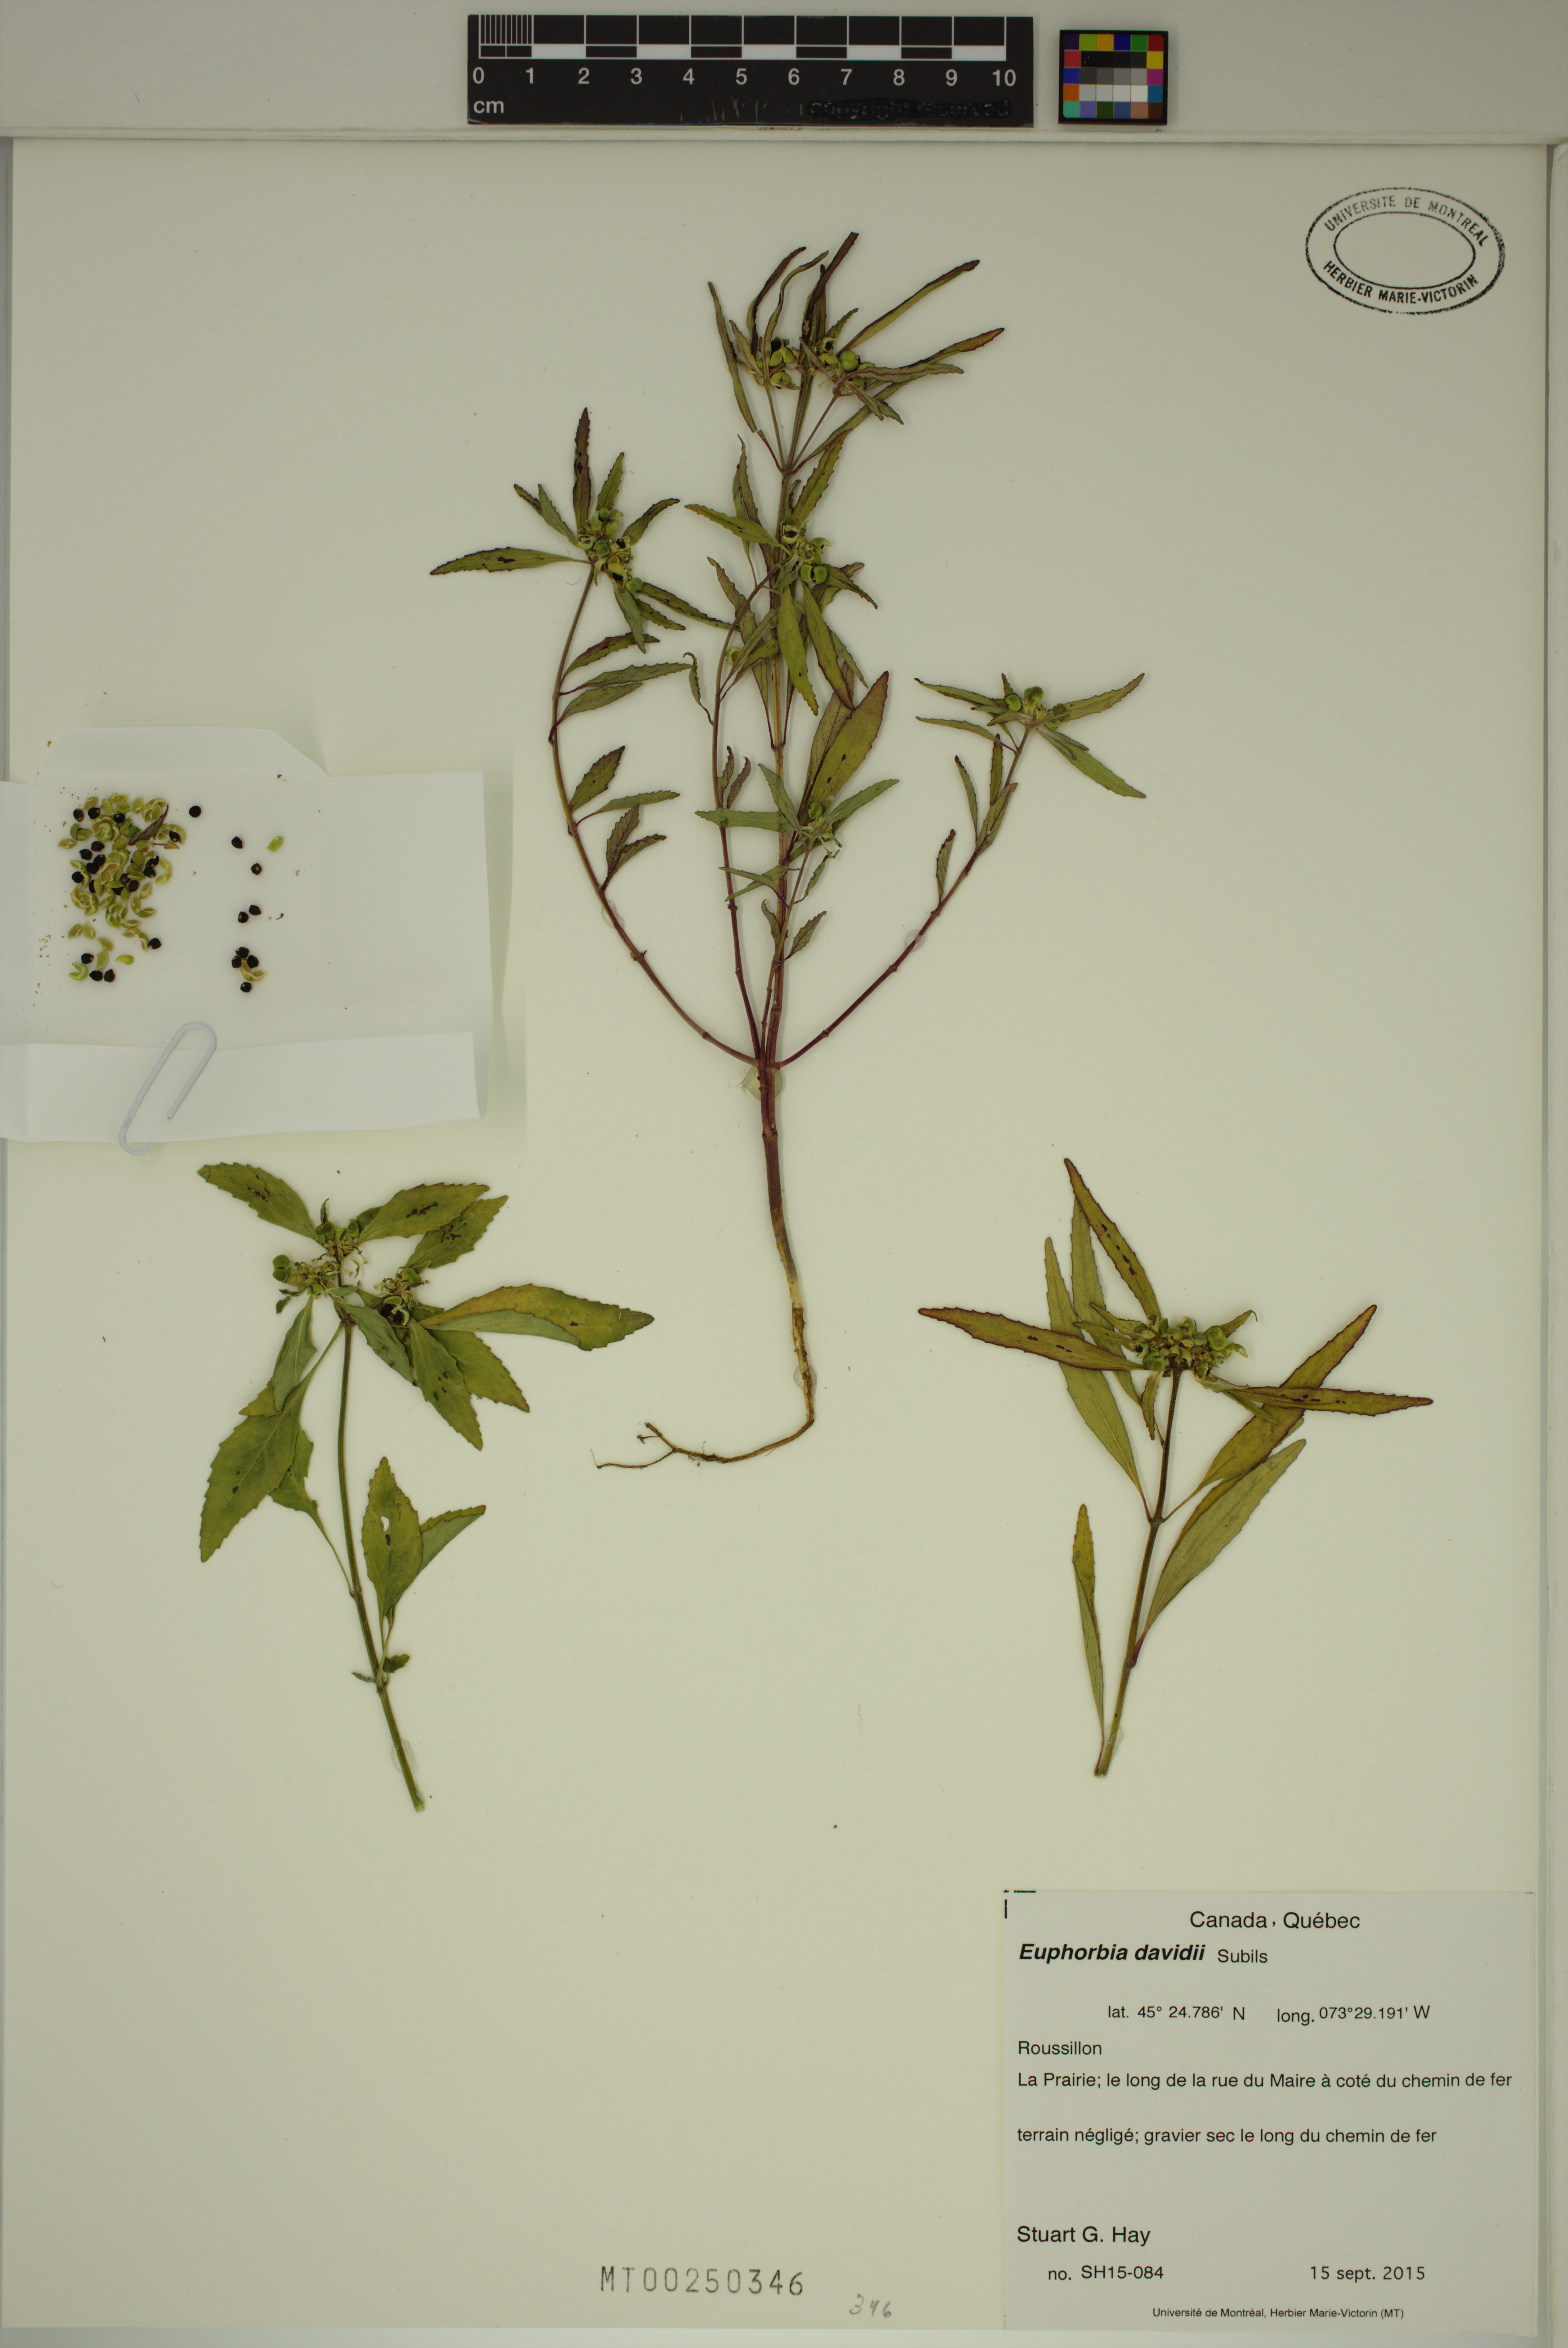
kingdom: Plantae
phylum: Tracheophyta
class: Magnoliopsida
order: Malpighiales
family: Euphorbiaceae
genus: Euphorbia
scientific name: Euphorbia davidii
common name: David's spurge
